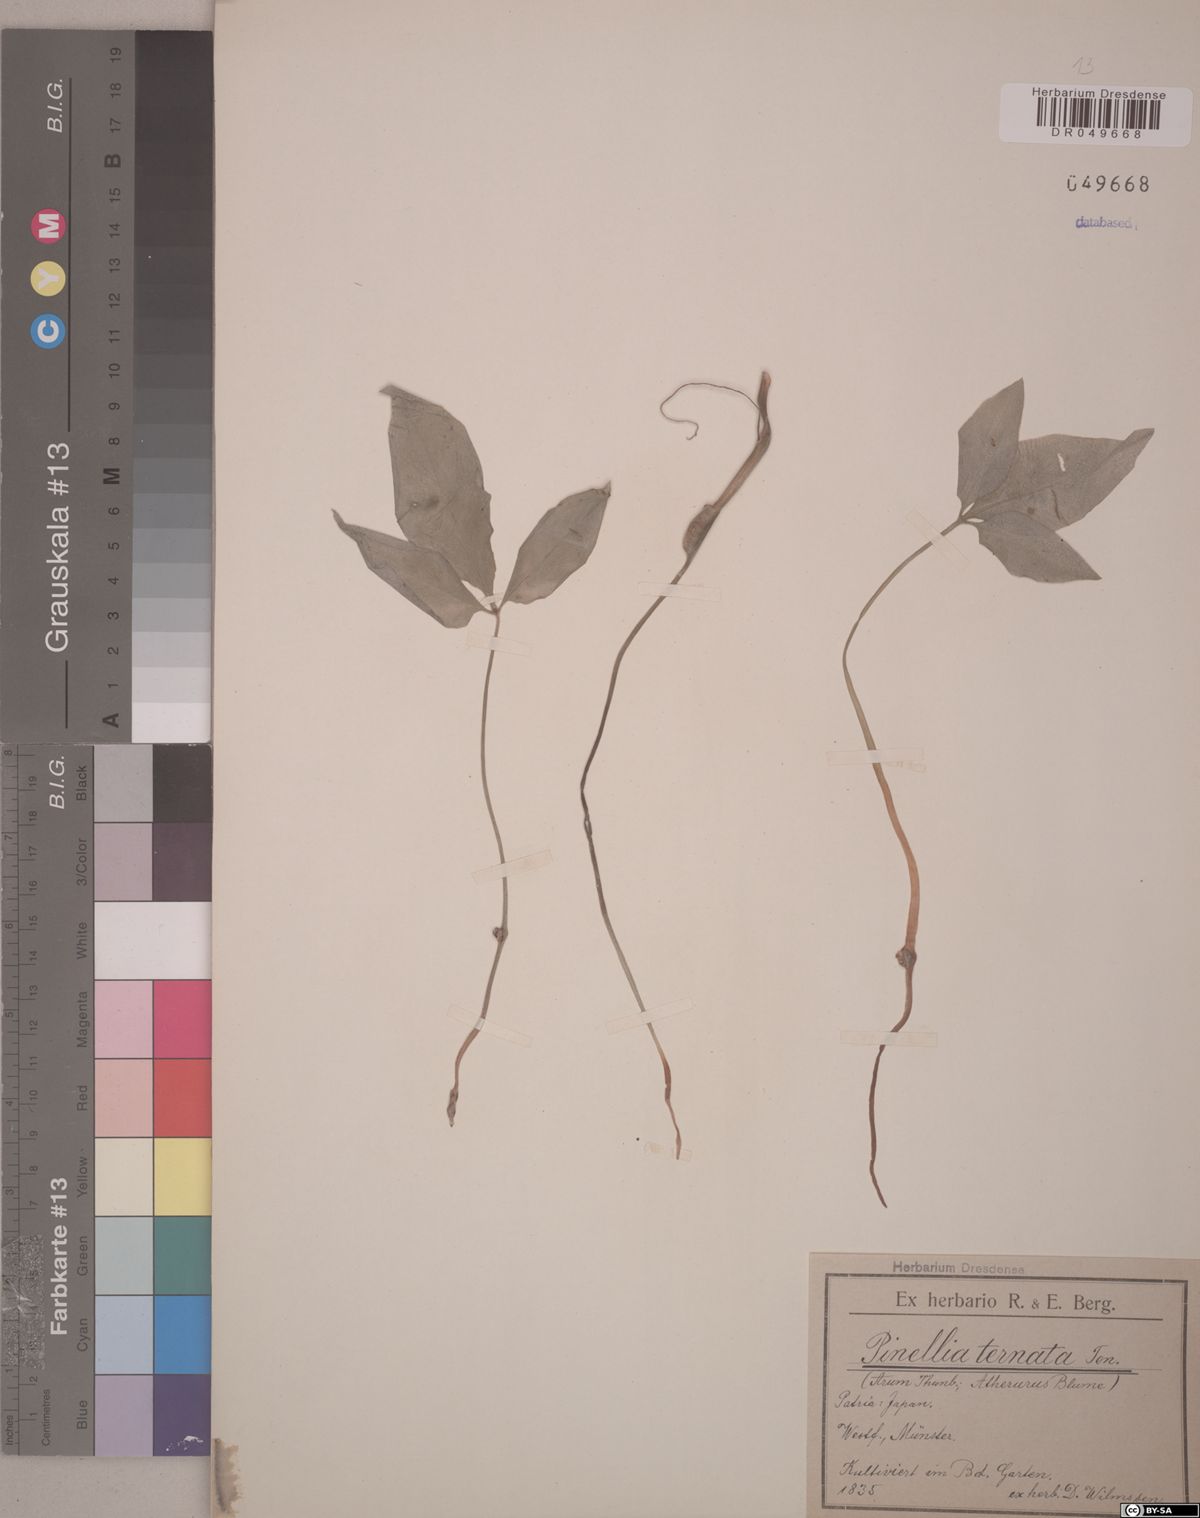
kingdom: Plantae
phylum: Tracheophyta
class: Liliopsida
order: Alismatales
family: Araceae
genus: Pinellia
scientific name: Pinellia ternata
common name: Pinellia
